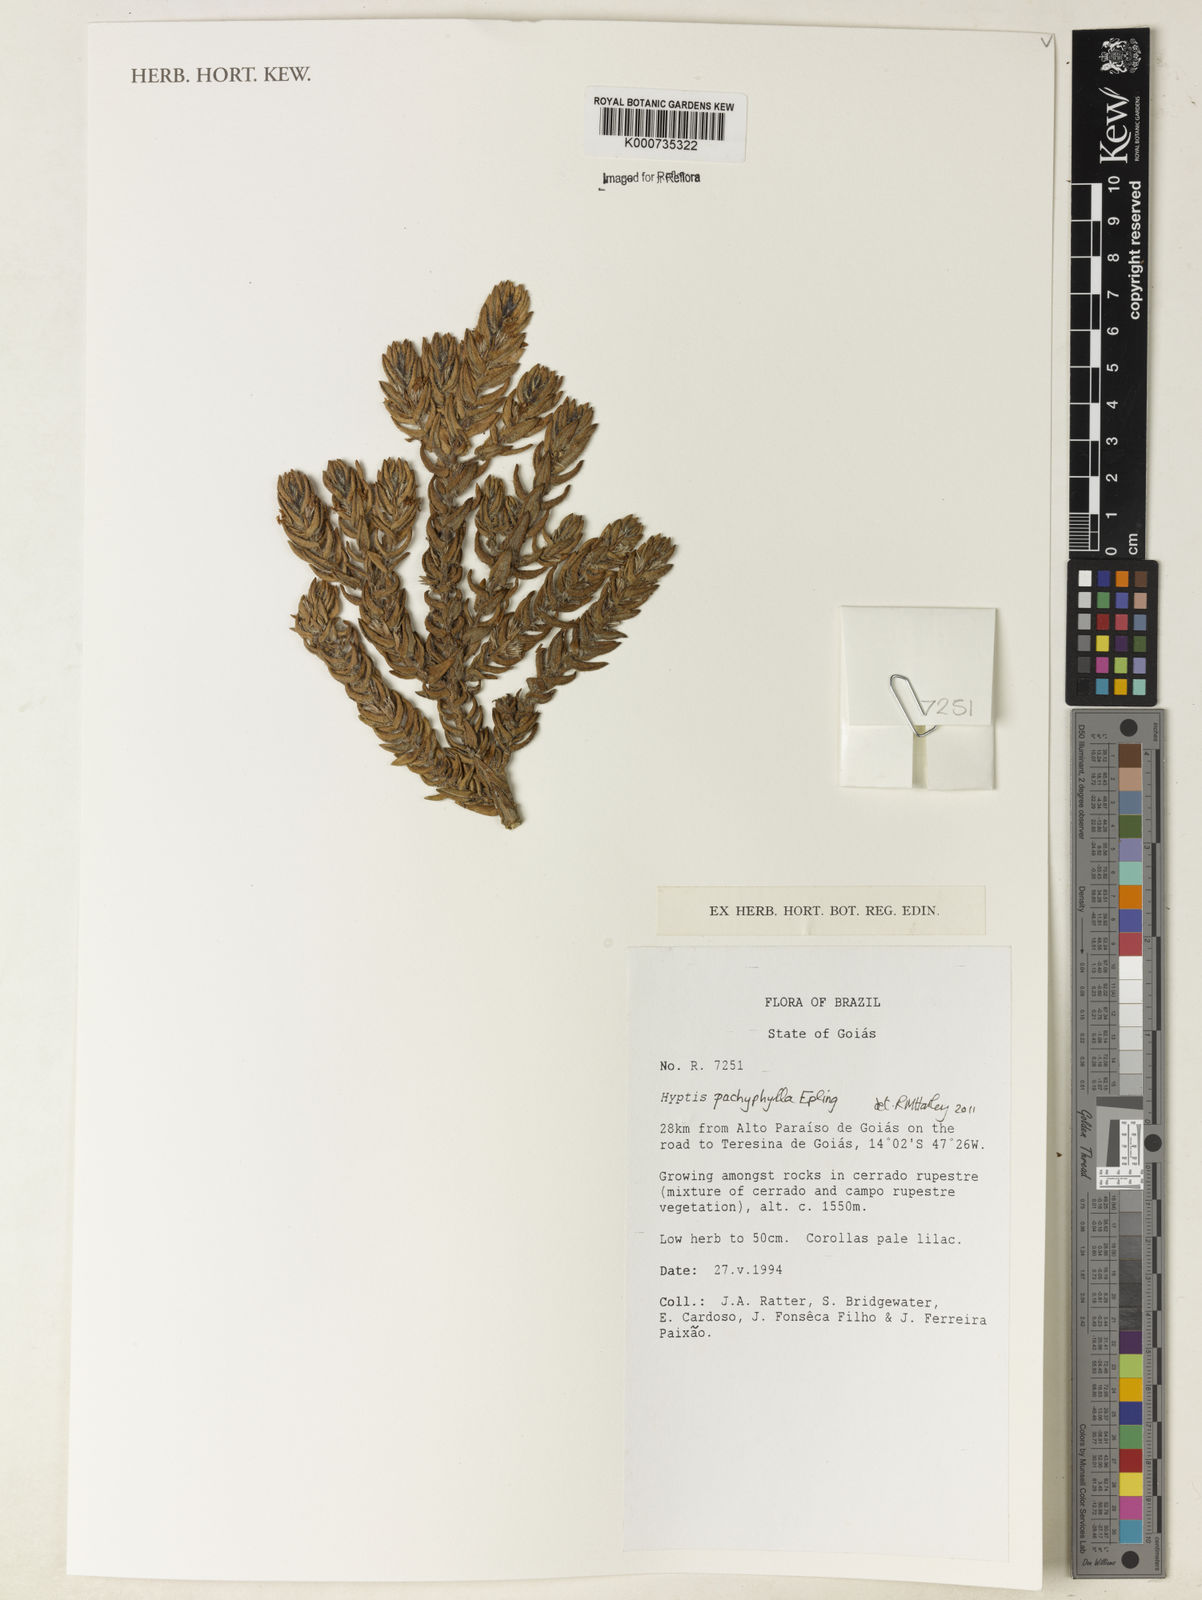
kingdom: Plantae
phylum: Tracheophyta
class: Magnoliopsida
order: Lamiales
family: Lamiaceae
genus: Hyptis
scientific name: Hyptis pachyphylla
